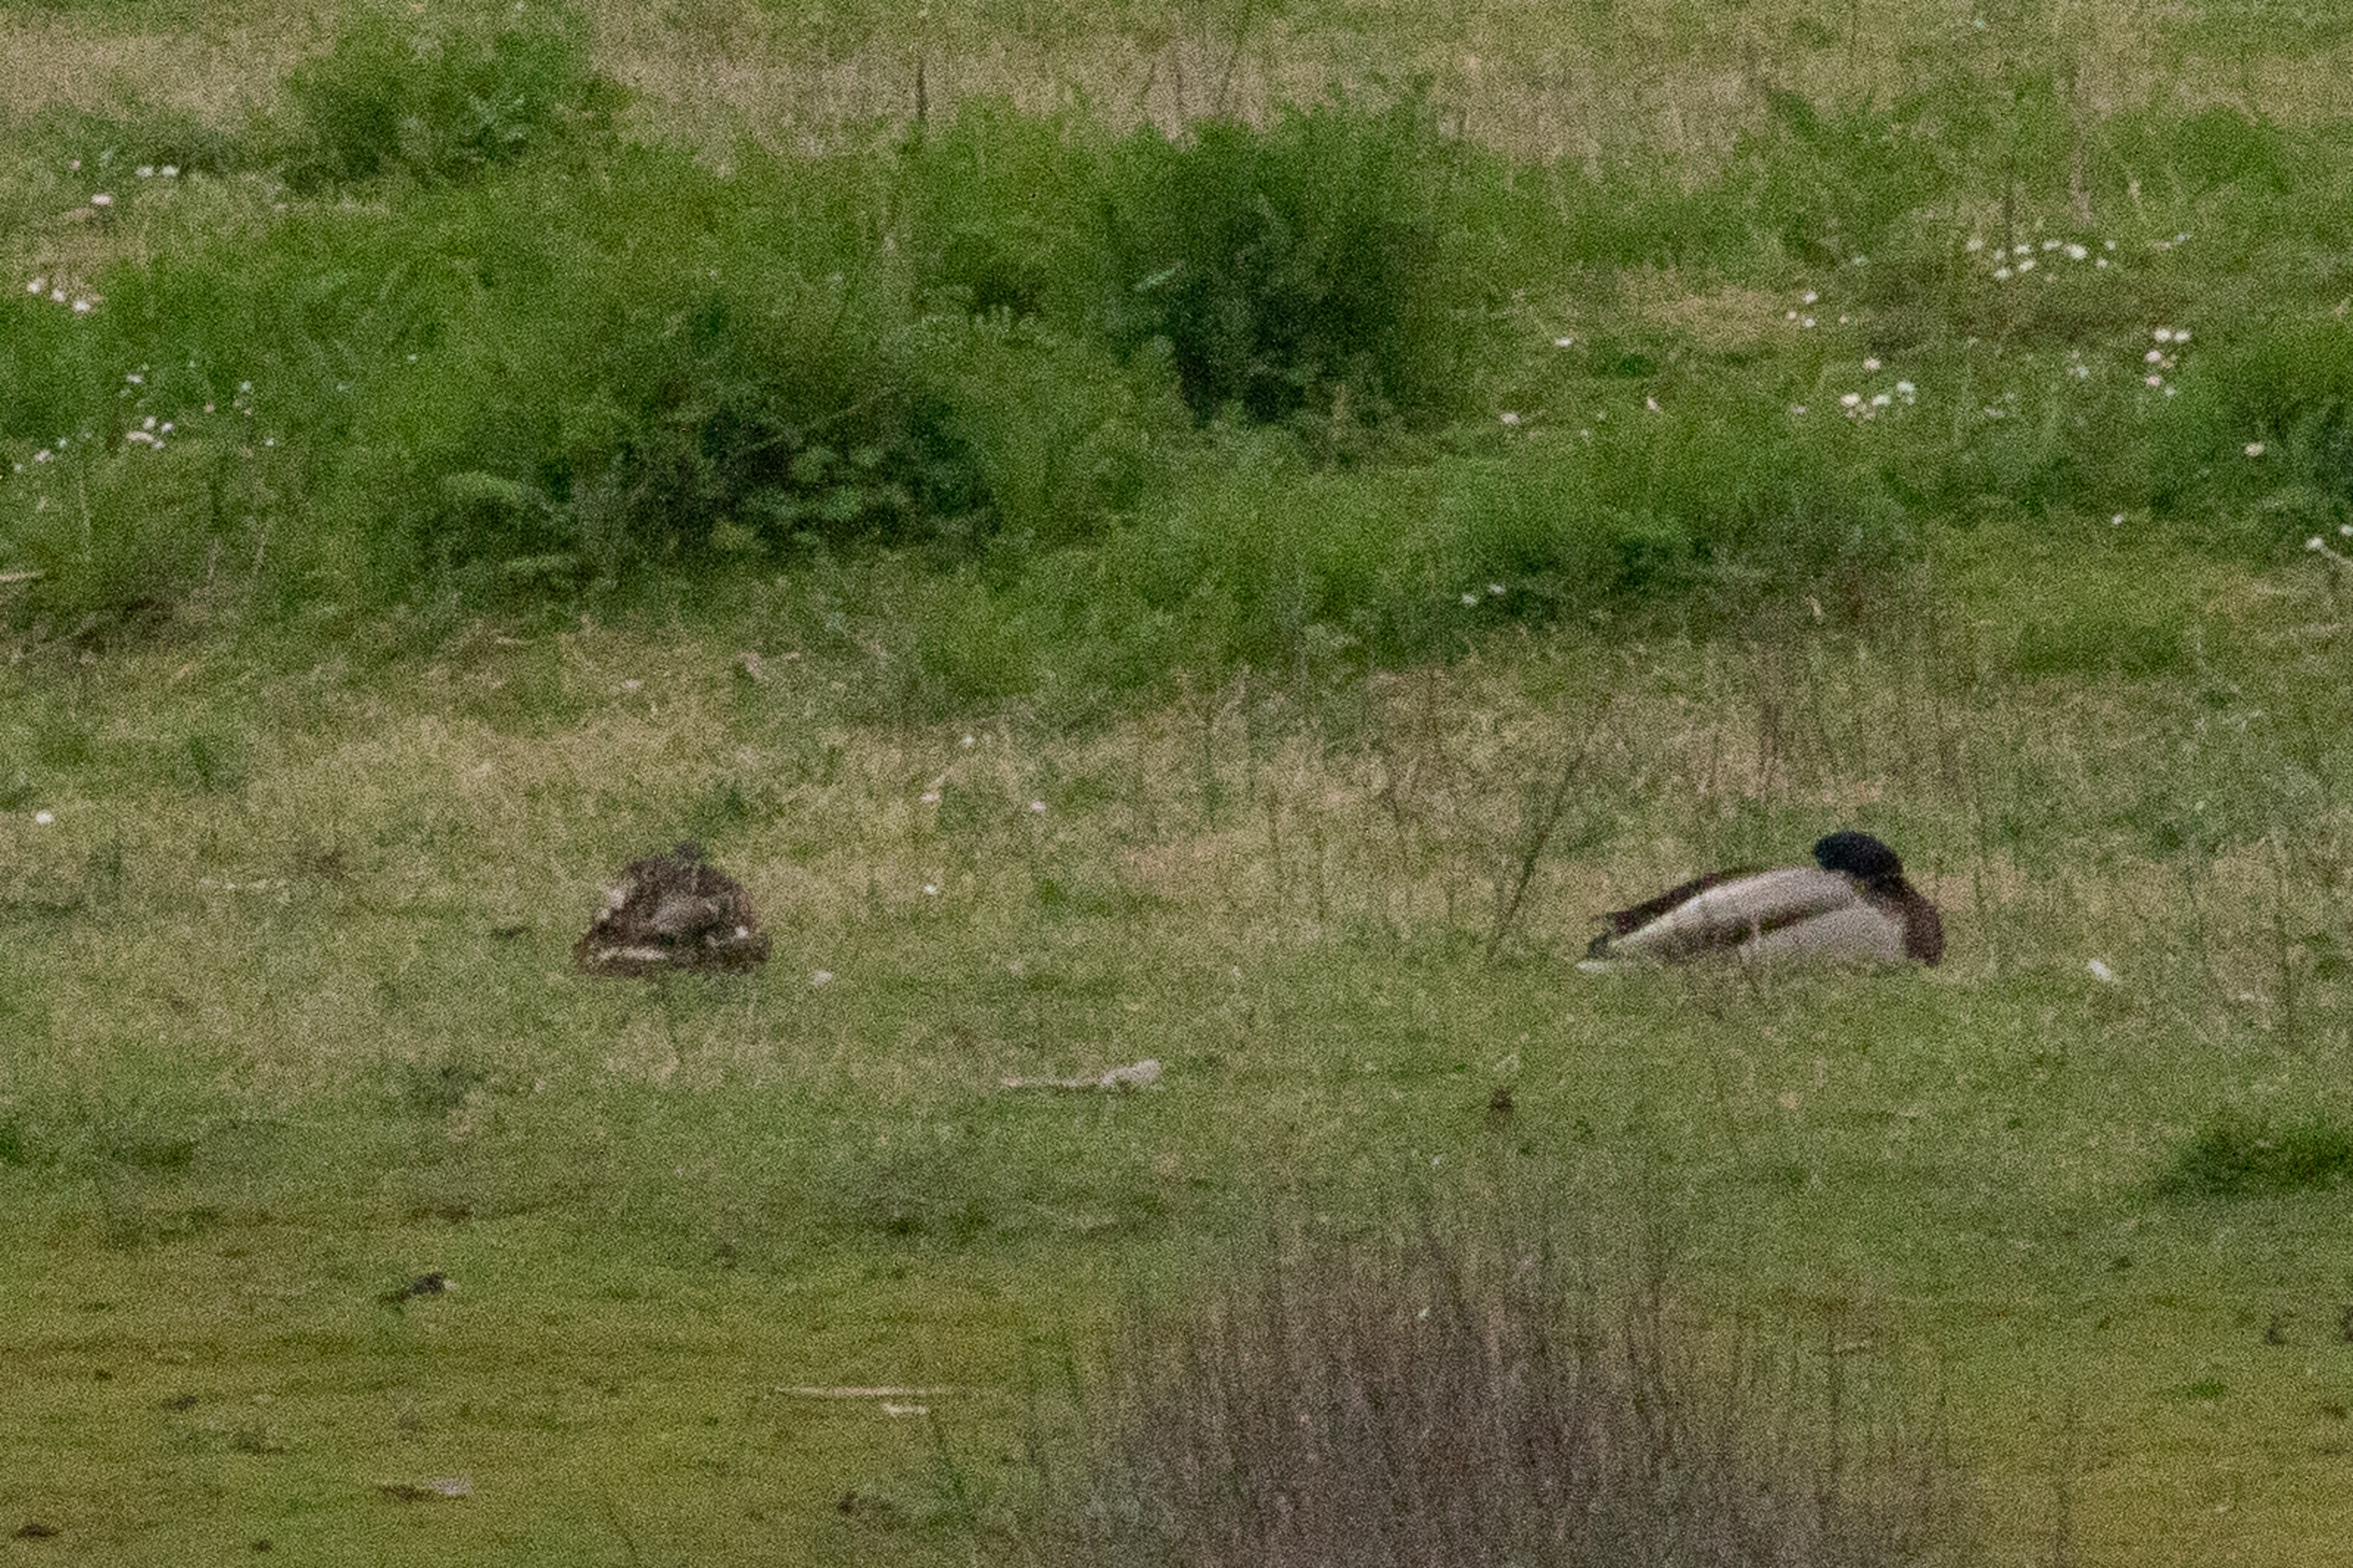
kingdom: Animalia
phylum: Chordata
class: Aves
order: Anseriformes
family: Anatidae
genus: Anas
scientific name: Anas platyrhynchos
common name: Gråand
